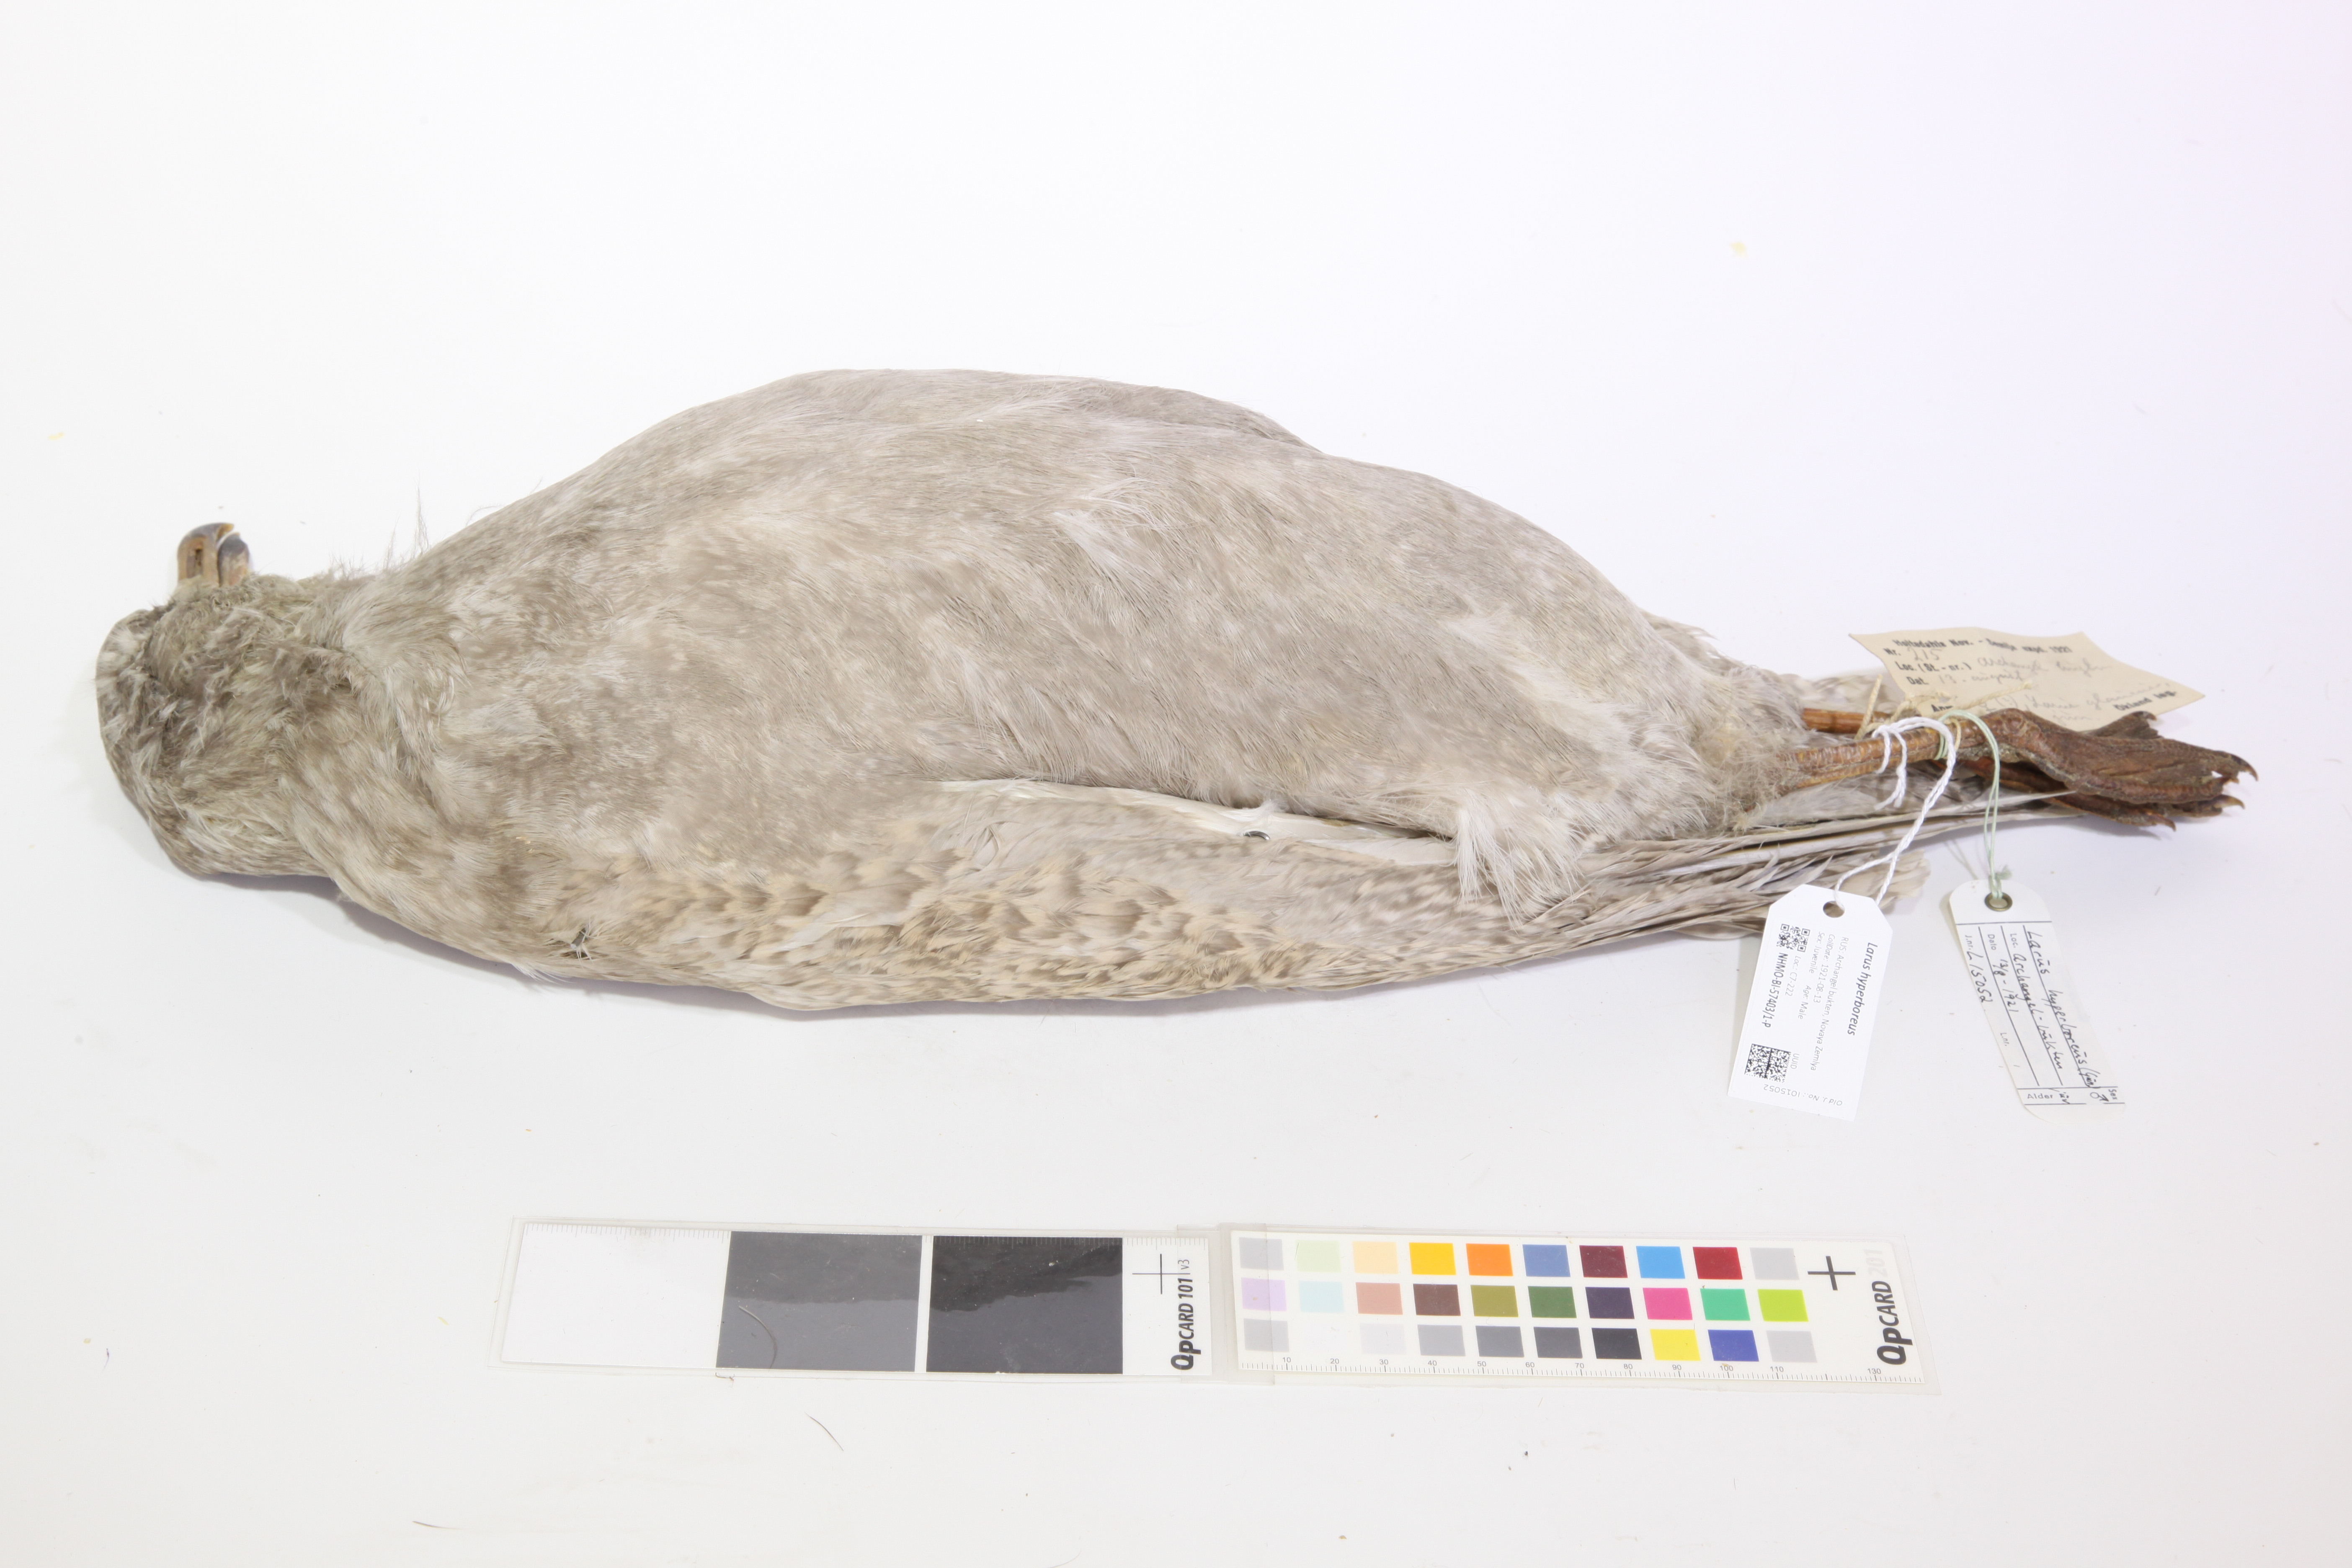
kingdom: Animalia
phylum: Chordata
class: Aves
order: Charadriiformes
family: Laridae
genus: Larus
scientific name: Larus hyperboreus
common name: Glaucous gull
